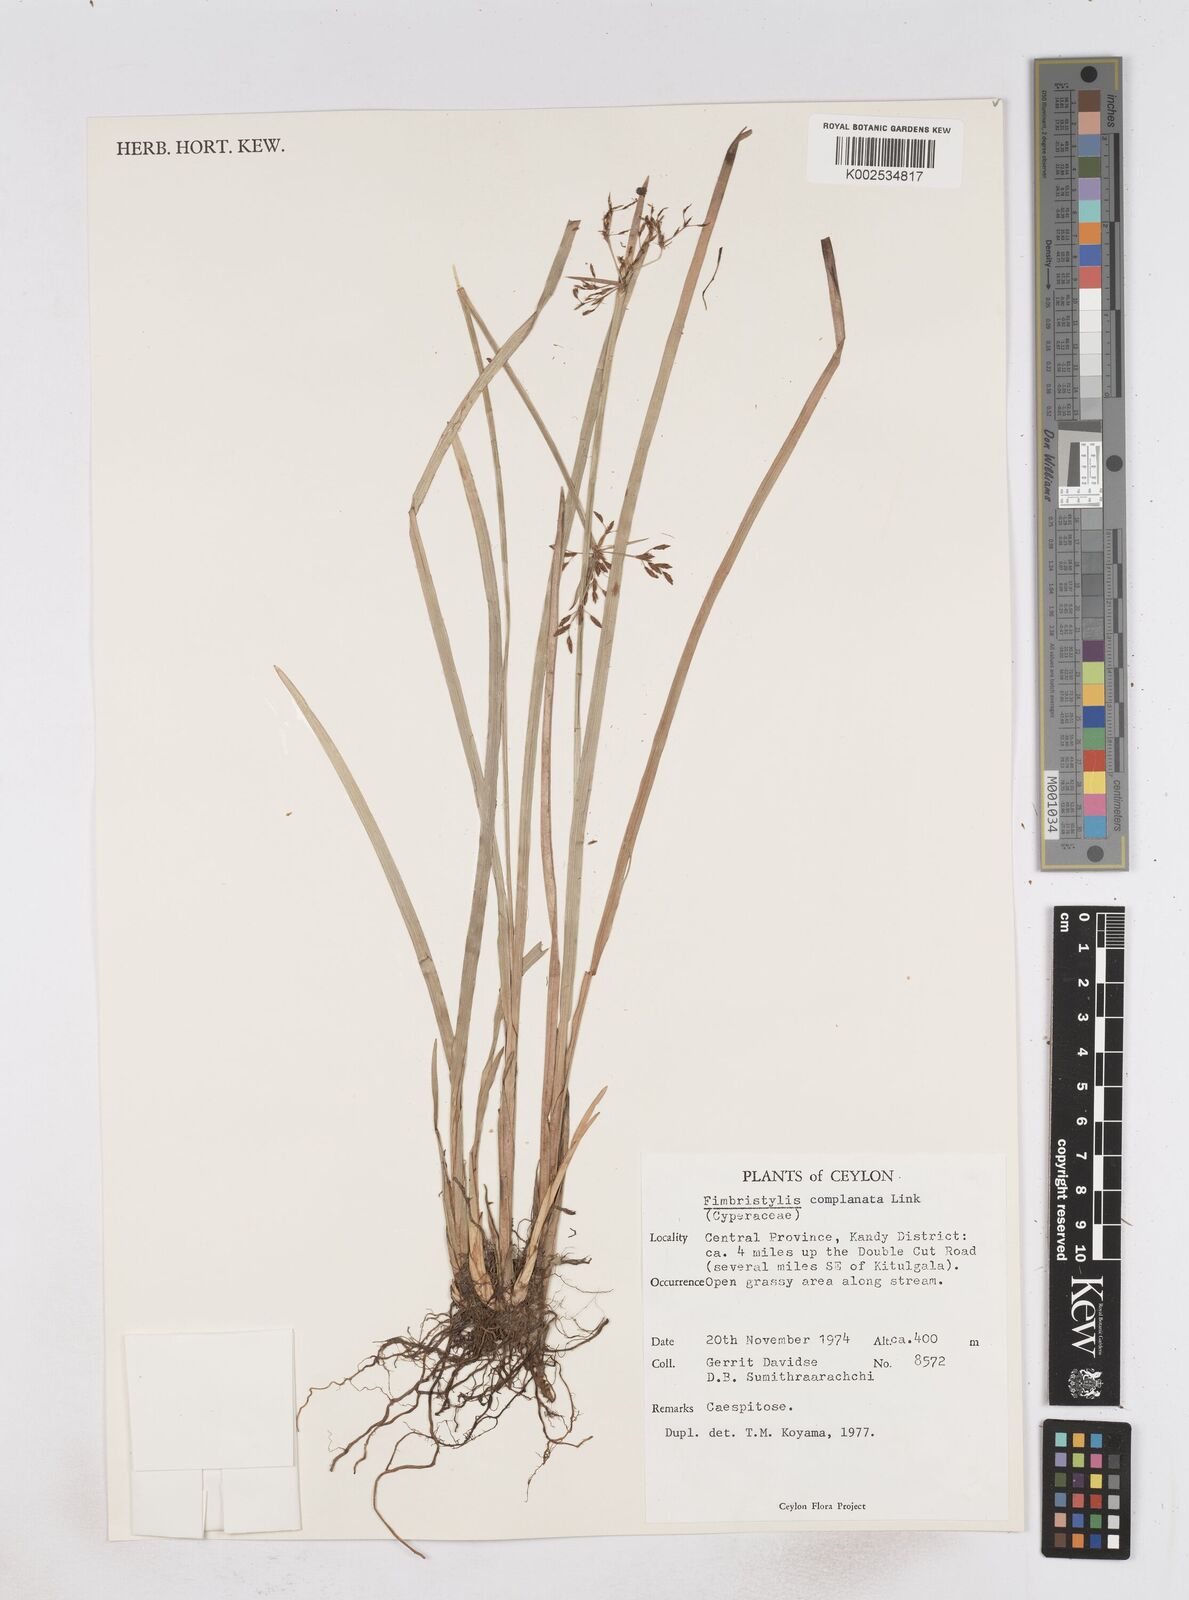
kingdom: Plantae
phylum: Tracheophyta
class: Liliopsida
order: Poales
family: Cyperaceae
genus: Fimbristylis
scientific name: Fimbristylis complanata
